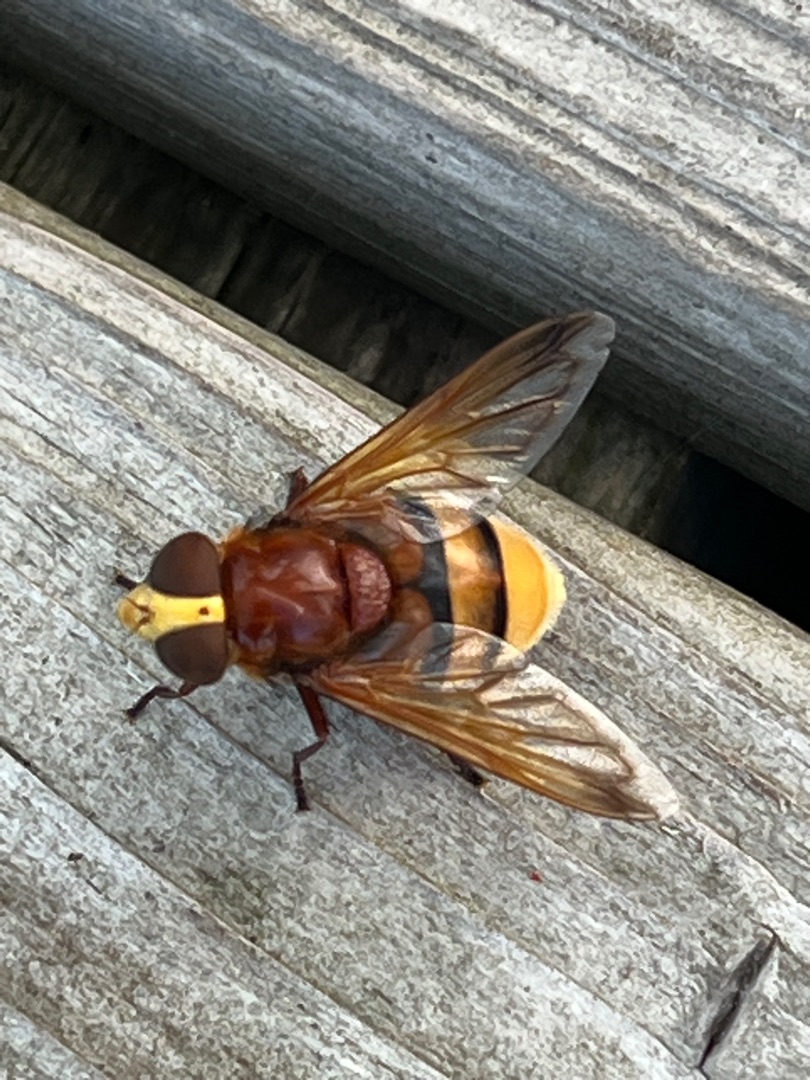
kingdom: Animalia
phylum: Arthropoda
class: Insecta
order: Diptera
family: Syrphidae
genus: Volucella
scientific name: Volucella zonaria
